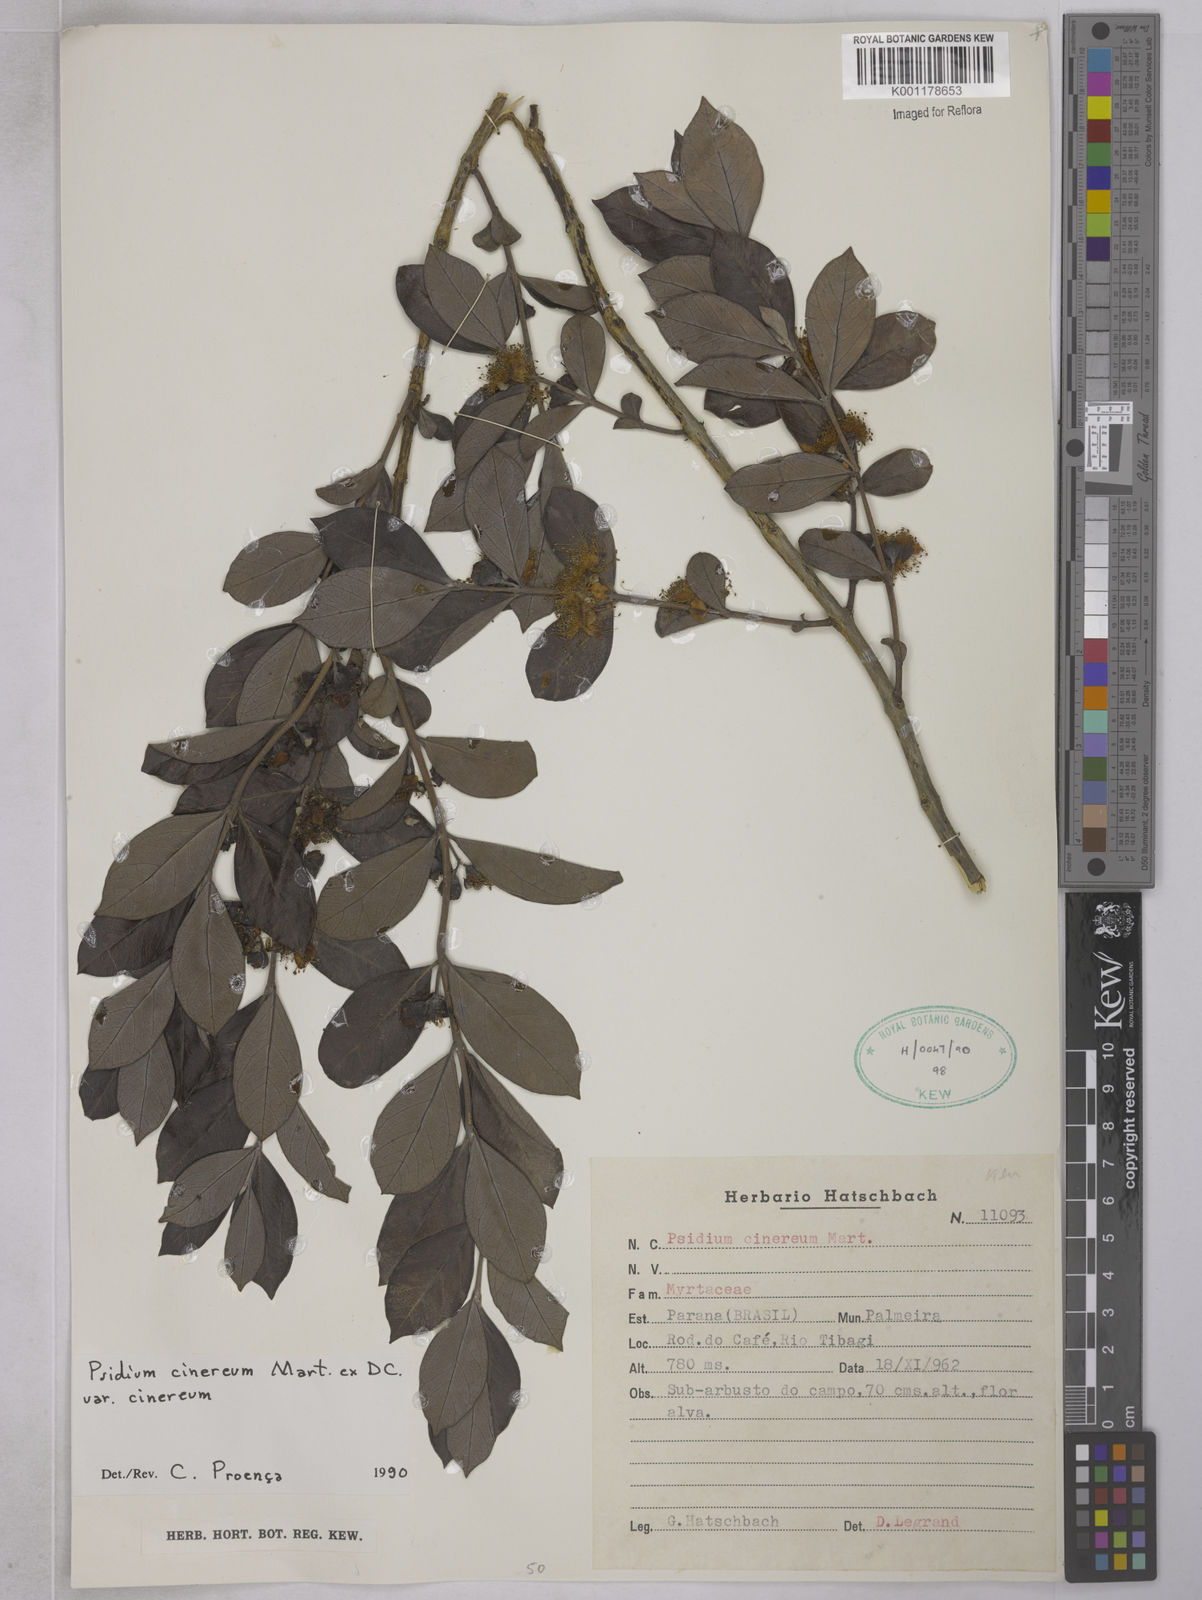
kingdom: Plantae
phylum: Tracheophyta
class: Magnoliopsida
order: Myrtales
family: Myrtaceae
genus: Psidium
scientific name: Psidium grandifolium
